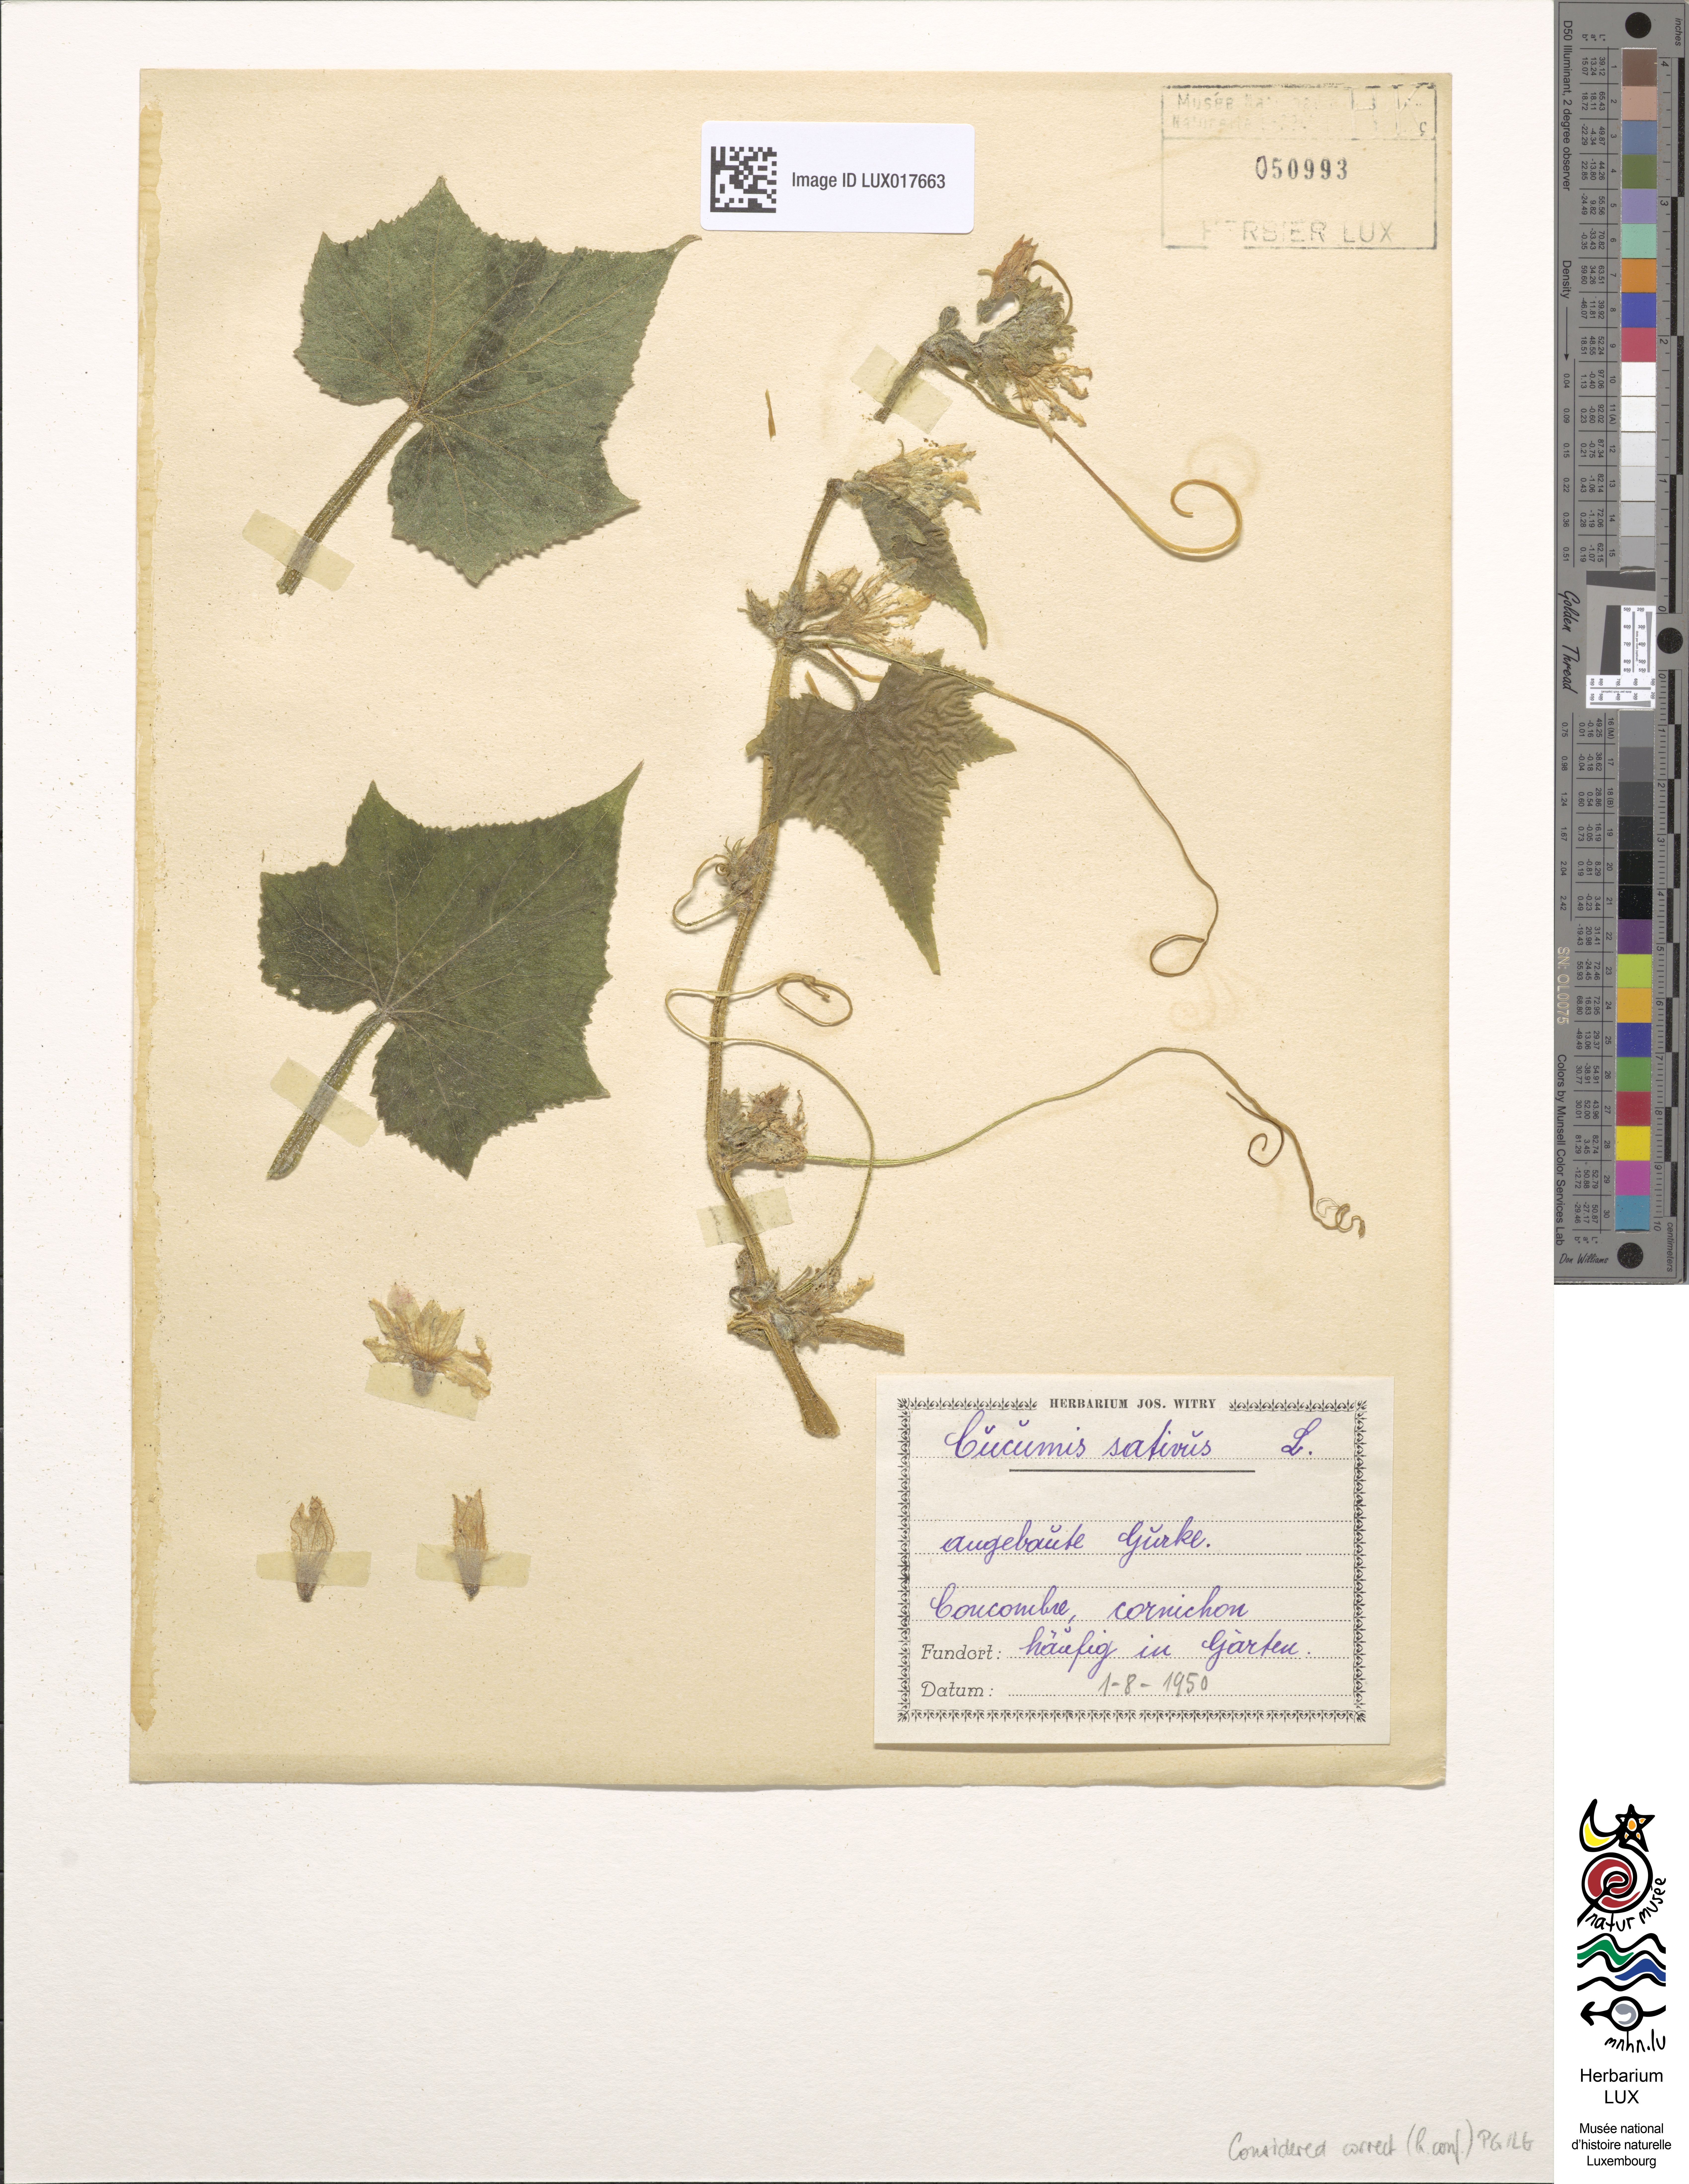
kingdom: Plantae
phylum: Tracheophyta
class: Magnoliopsida
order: Cucurbitales
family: Cucurbitaceae
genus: Cucumis
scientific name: Cucumis sativus
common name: Cucumber
